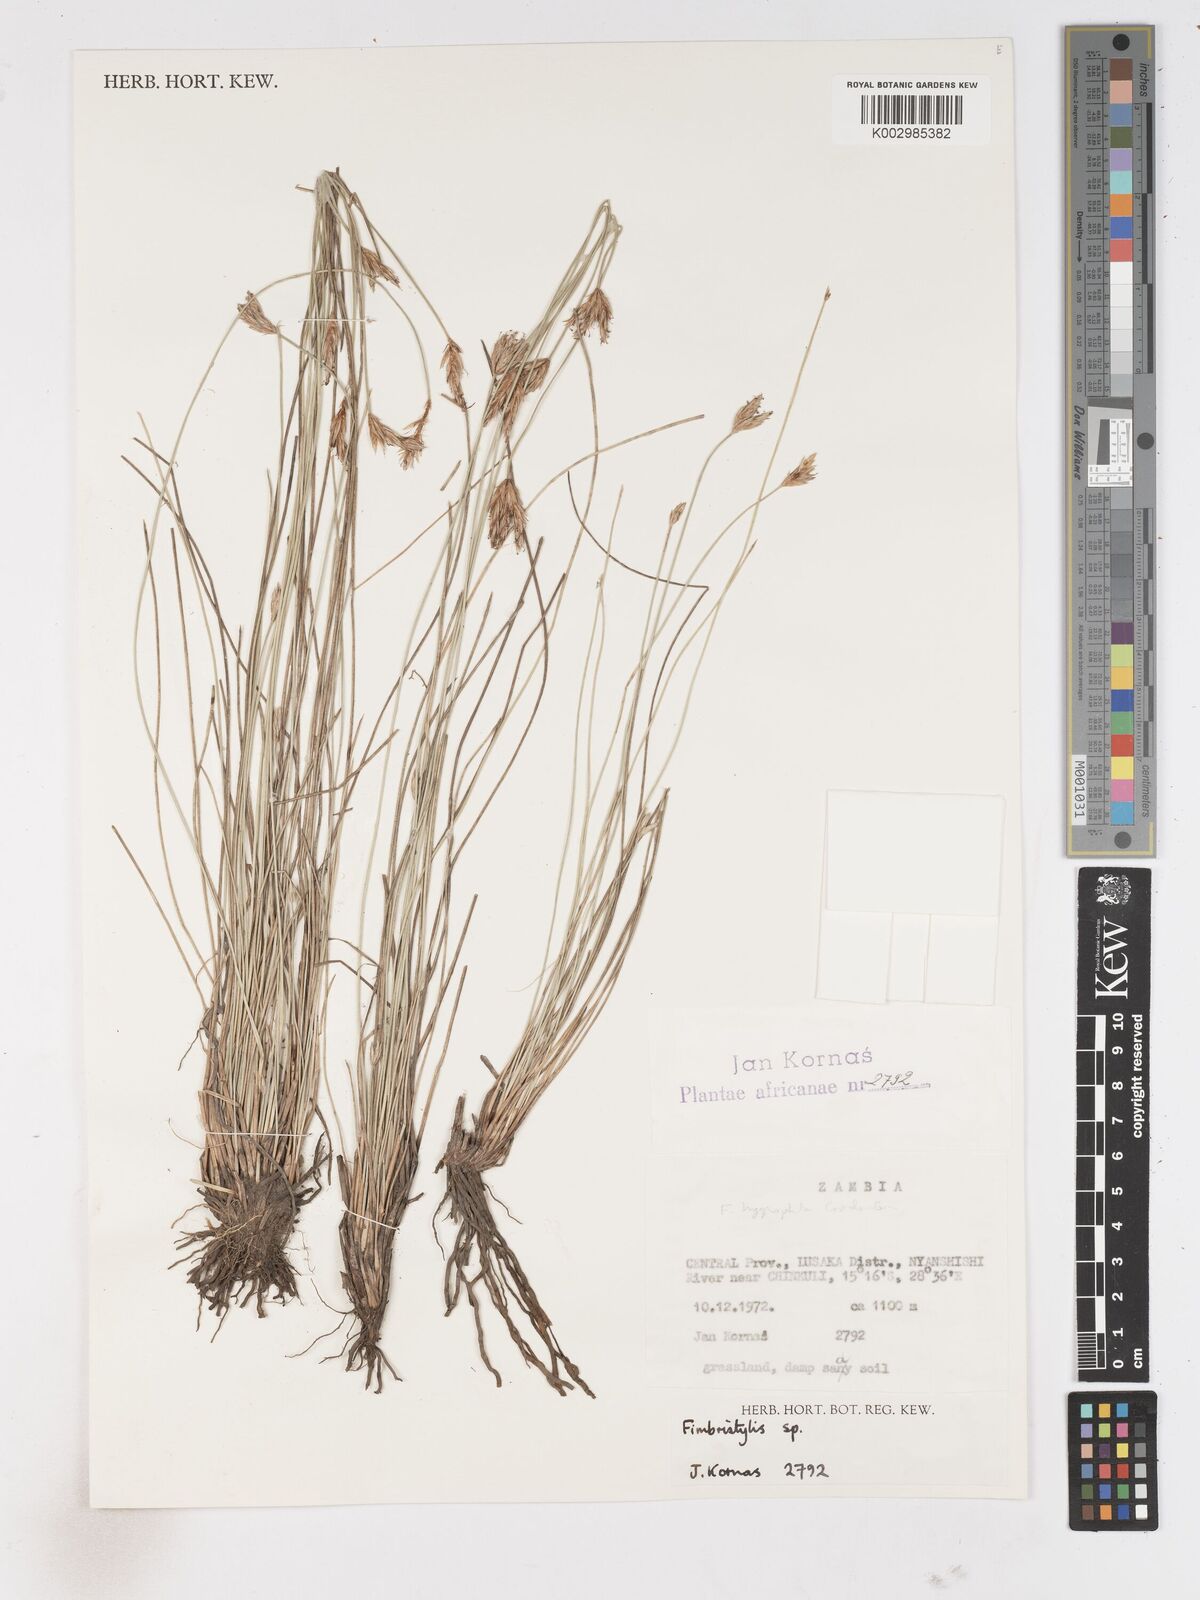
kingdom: Plantae
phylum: Tracheophyta
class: Liliopsida
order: Poales
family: Cyperaceae
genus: Zulustylis
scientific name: Zulustylis hygrophila
